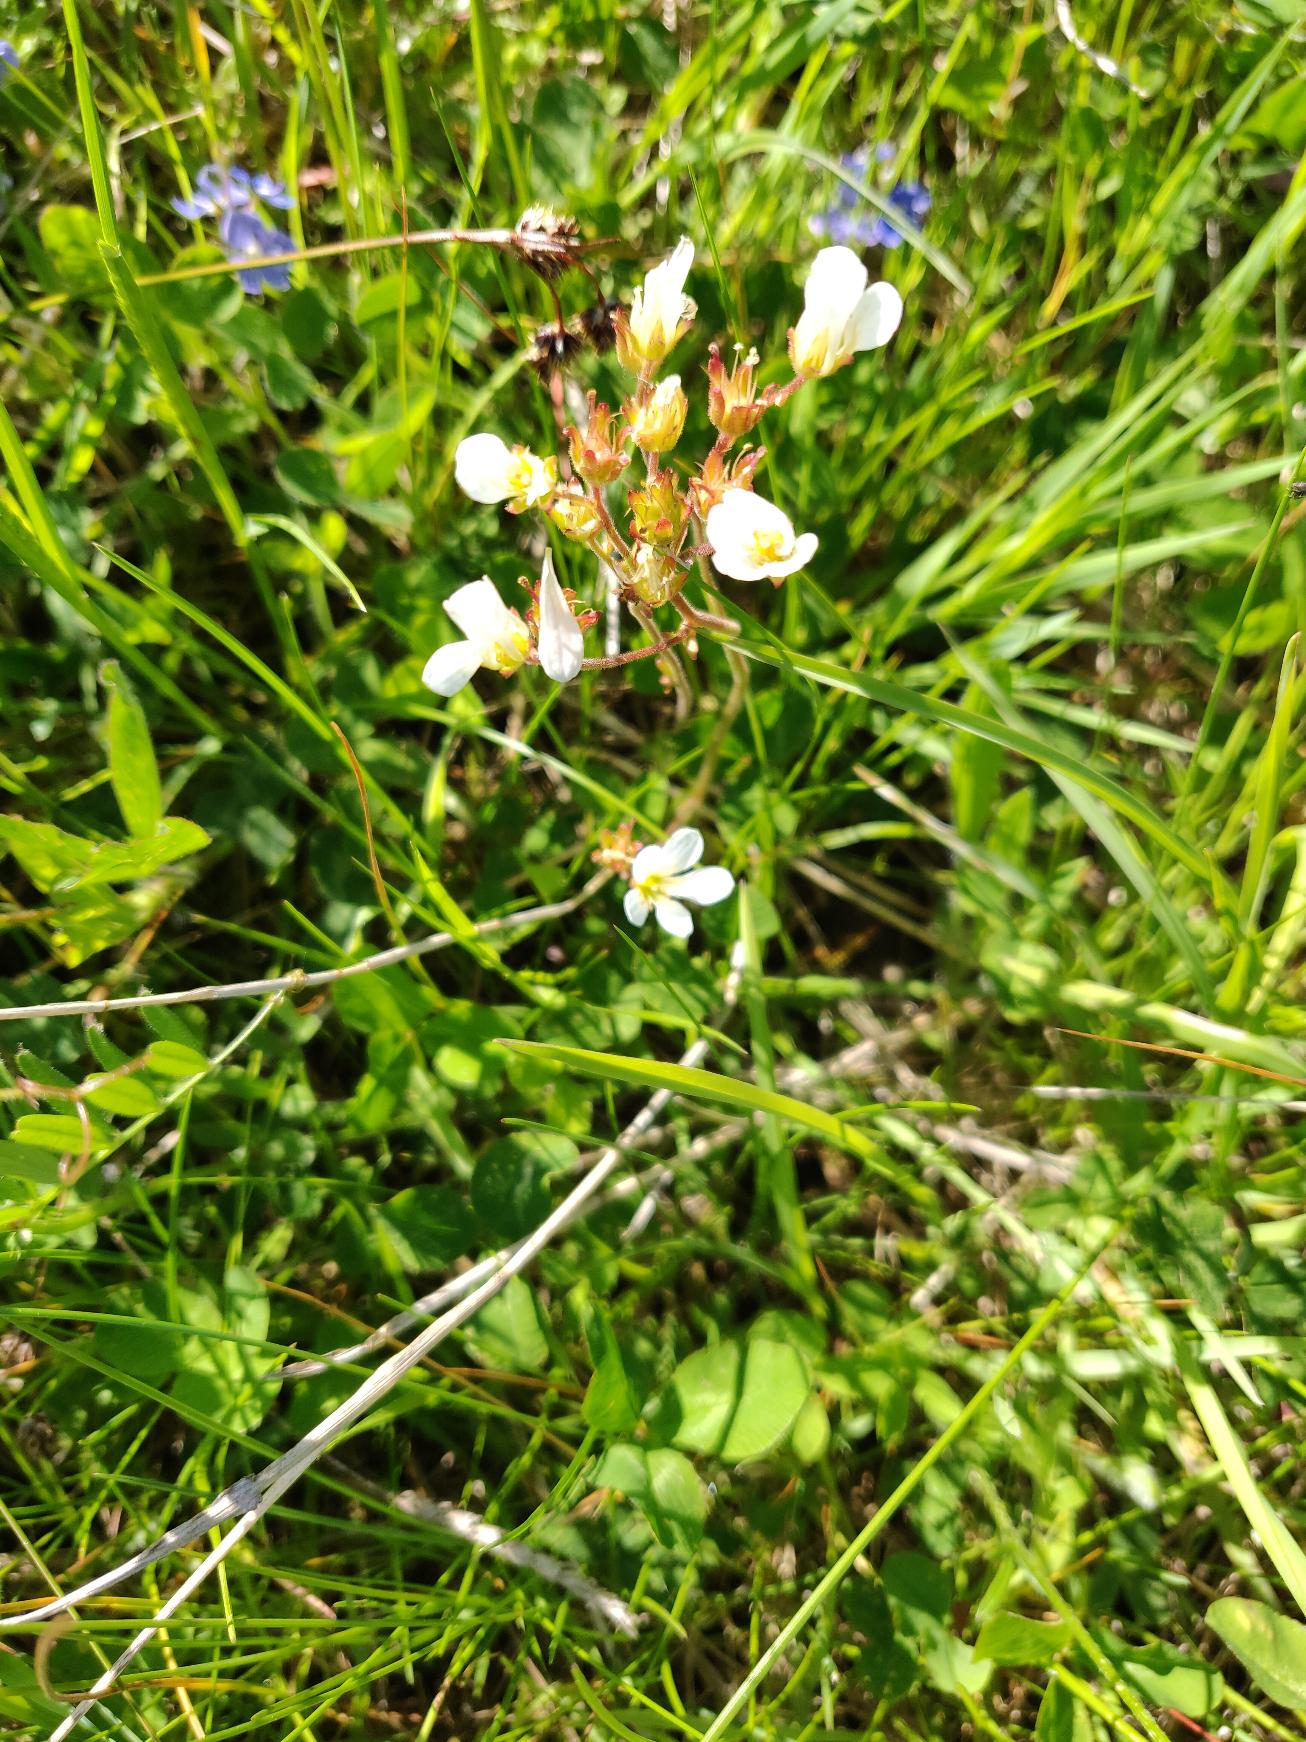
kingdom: Plantae
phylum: Tracheophyta
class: Magnoliopsida
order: Saxifragales
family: Saxifragaceae
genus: Saxifraga
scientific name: Saxifraga granulata
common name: Kornet stenbræk
